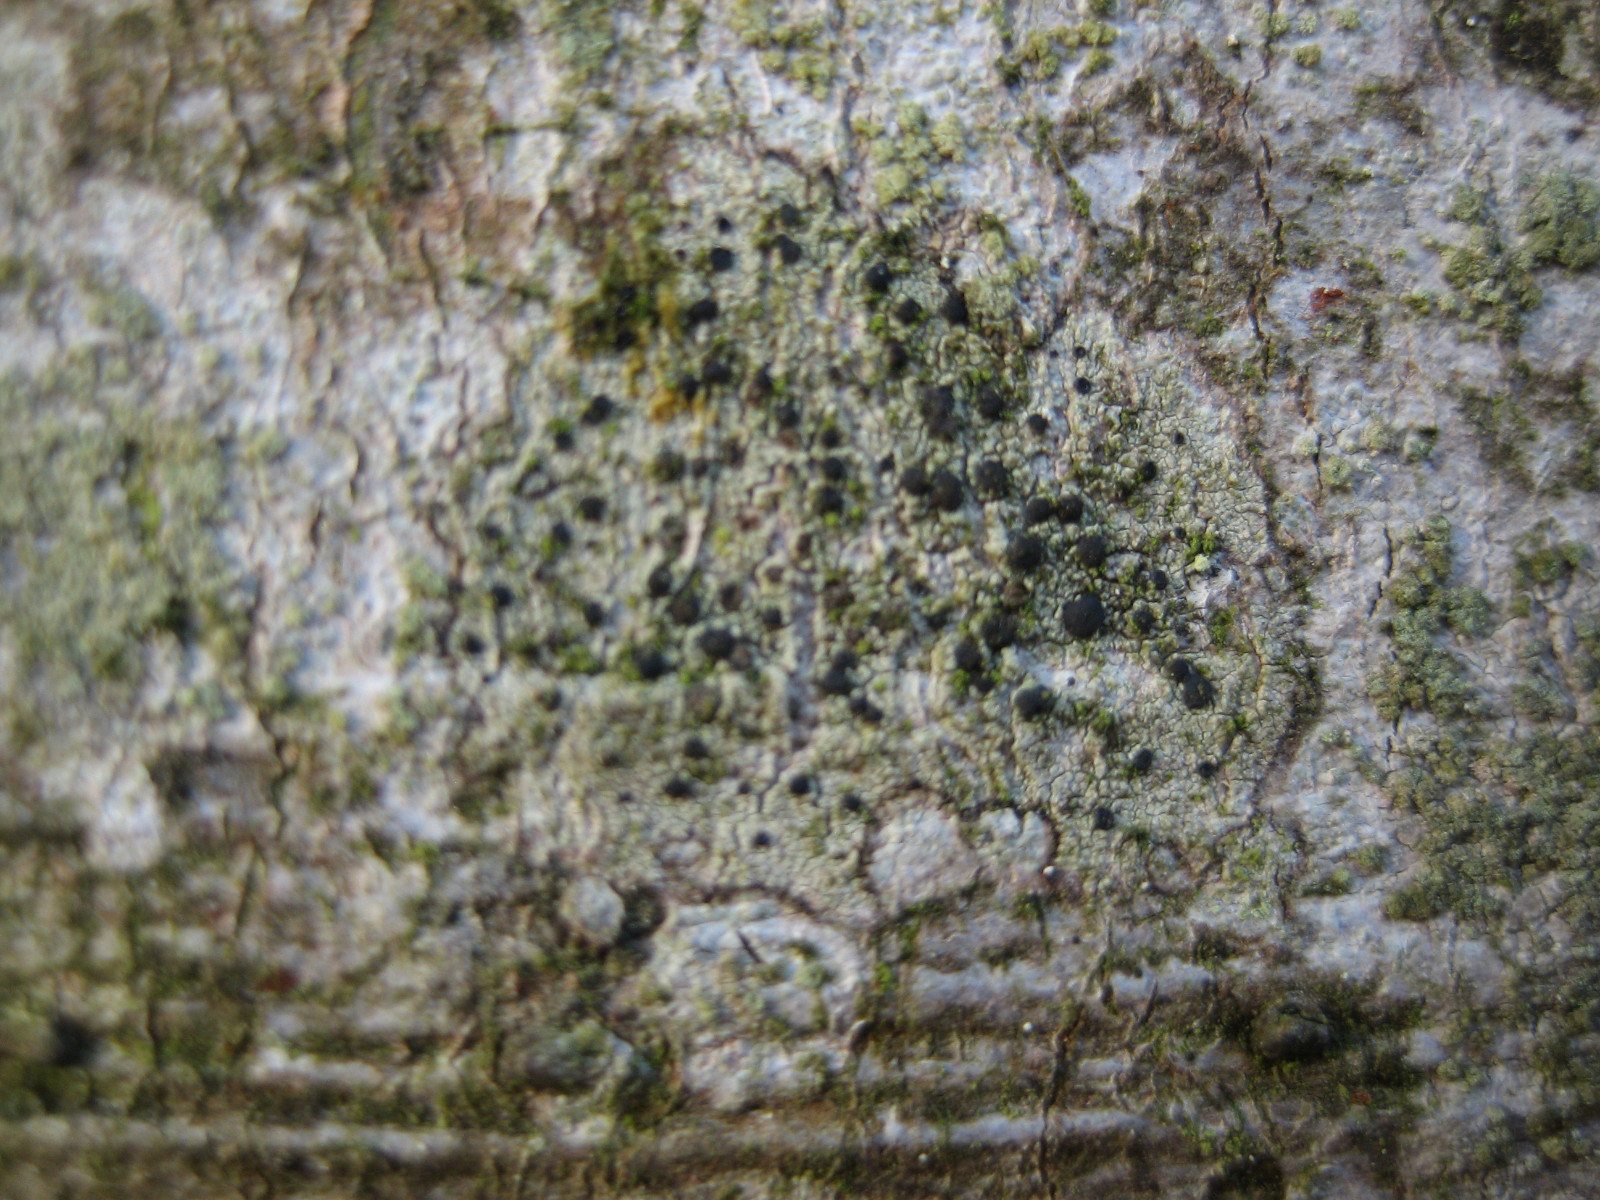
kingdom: Fungi
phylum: Ascomycota
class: Lecanoromycetes
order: Lecanorales
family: Lecanoraceae
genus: Lecidella
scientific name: Lecidella elaeochroma
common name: grågrøn skivelav
